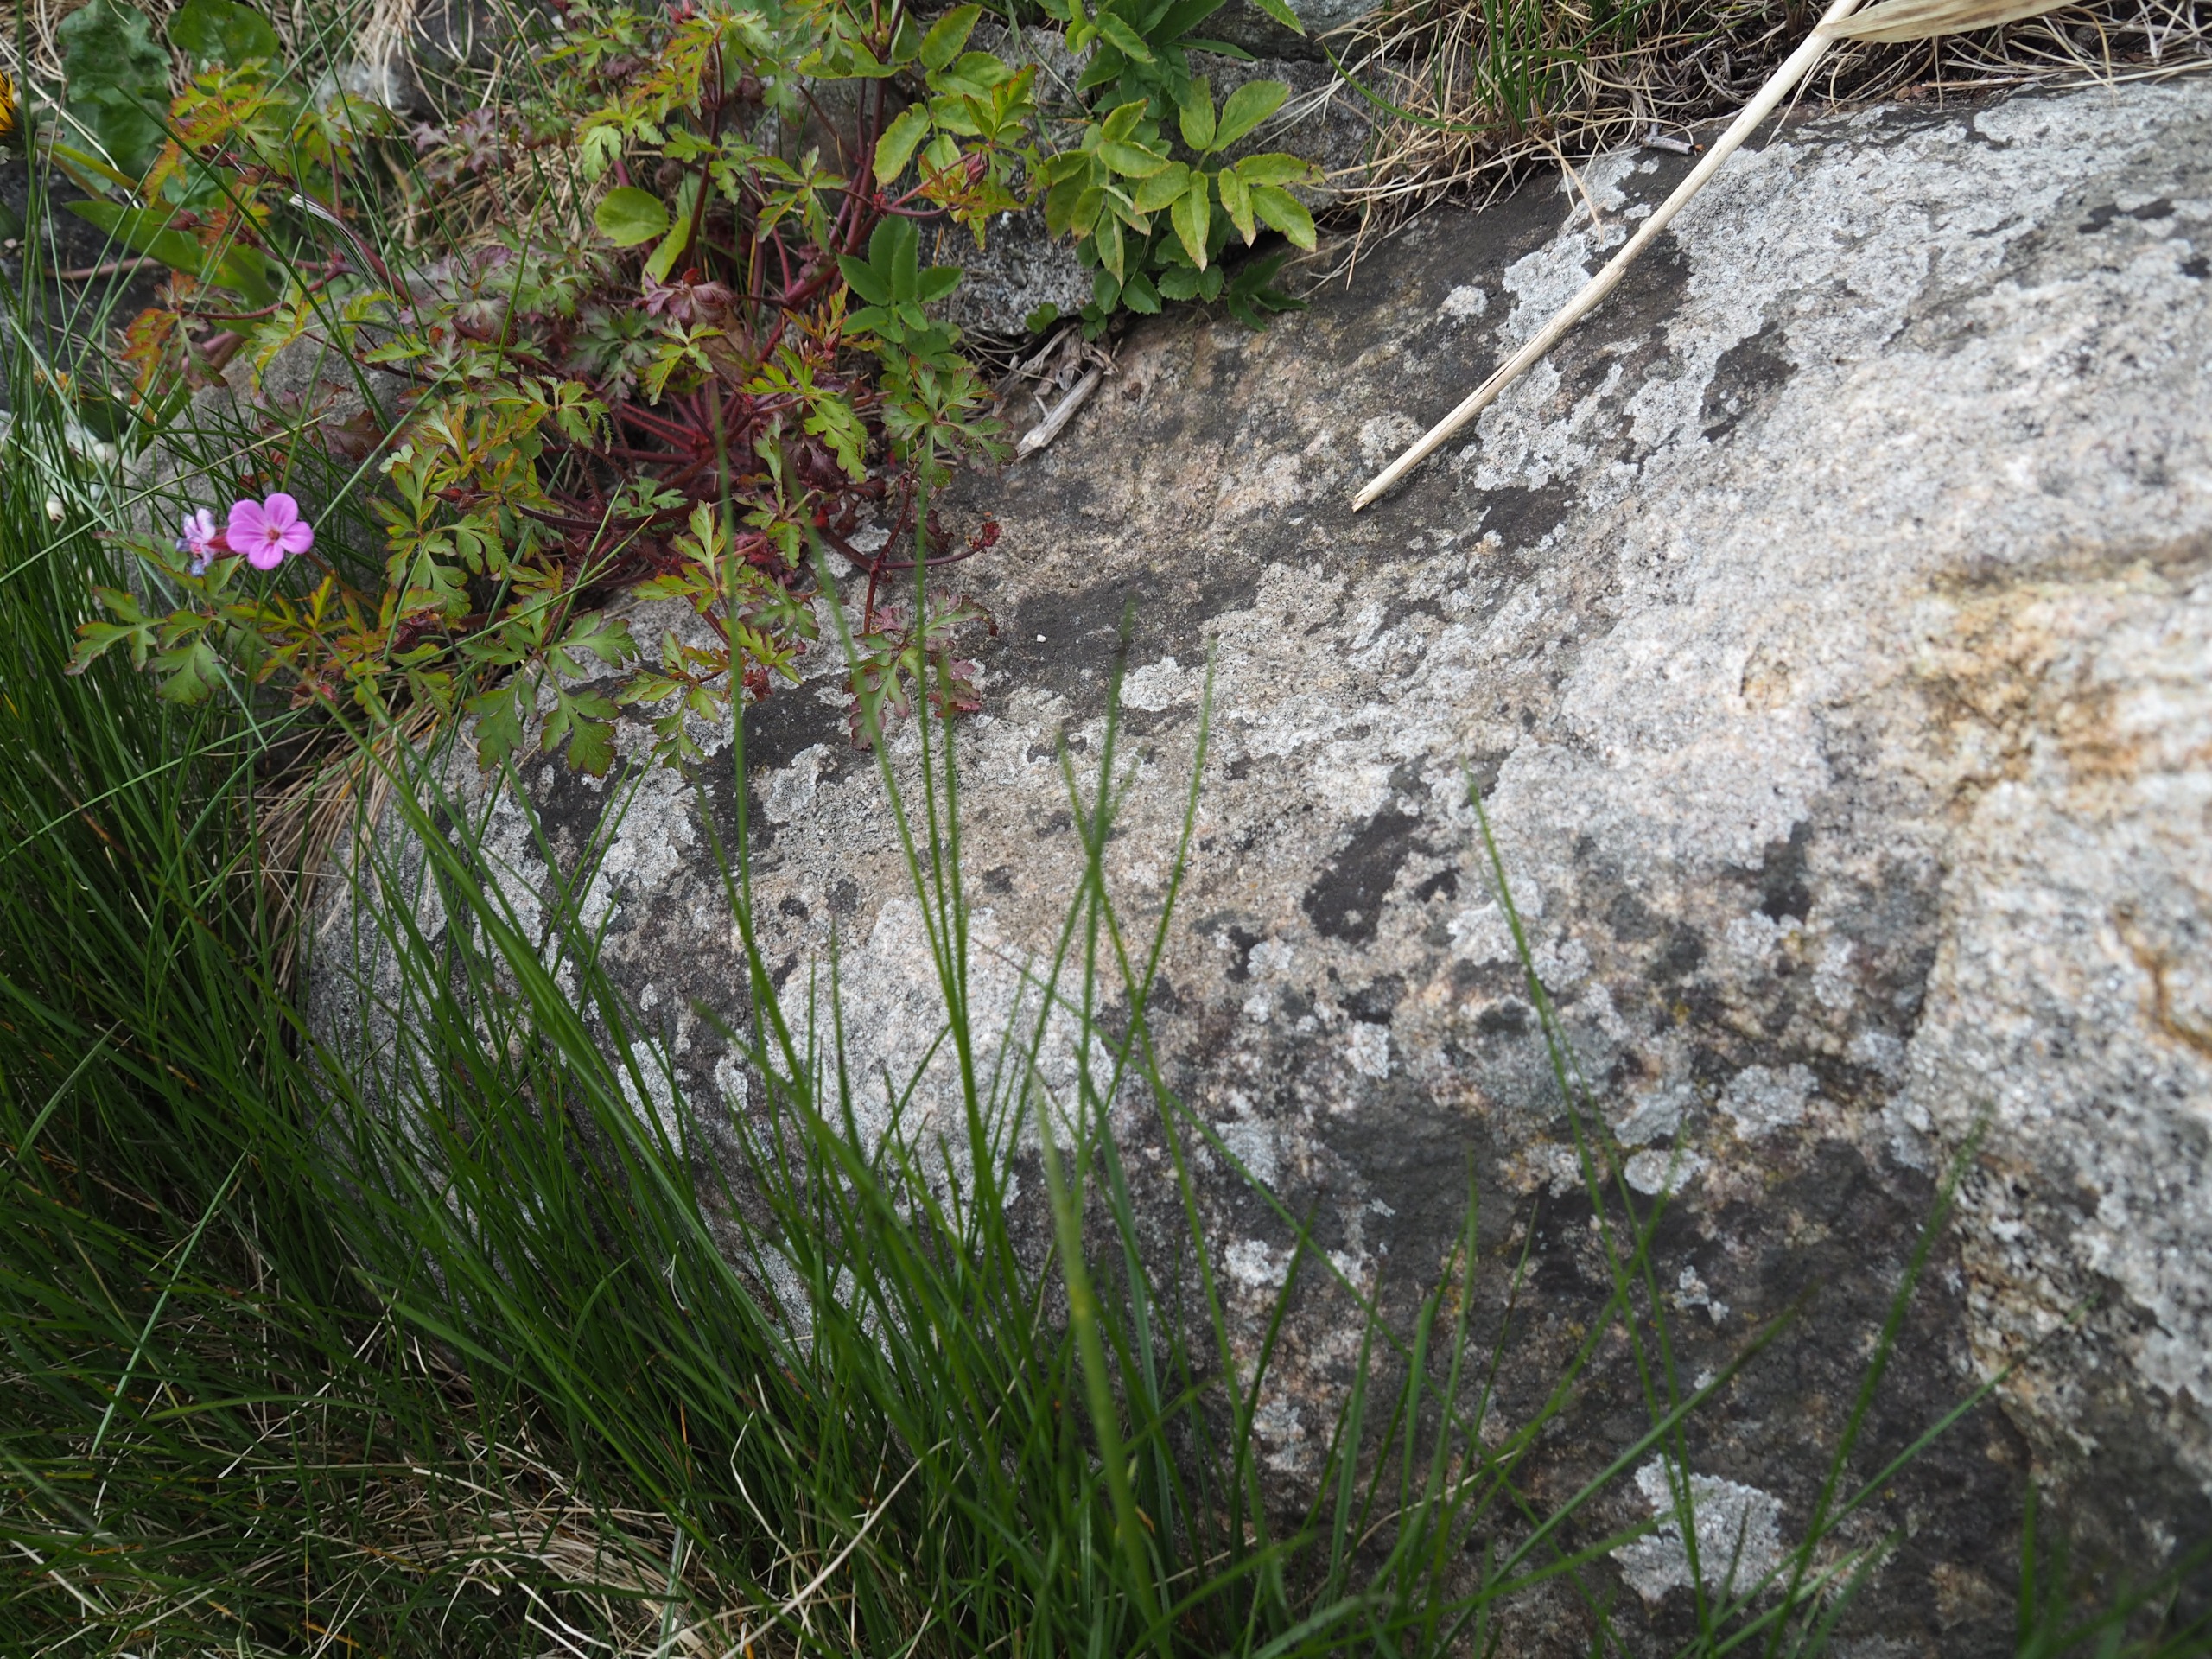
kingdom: Plantae
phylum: Tracheophyta
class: Magnoliopsida
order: Geraniales
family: Geraniaceae
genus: Geranium
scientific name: Geranium robertianum
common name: Stinkende storkenæb
